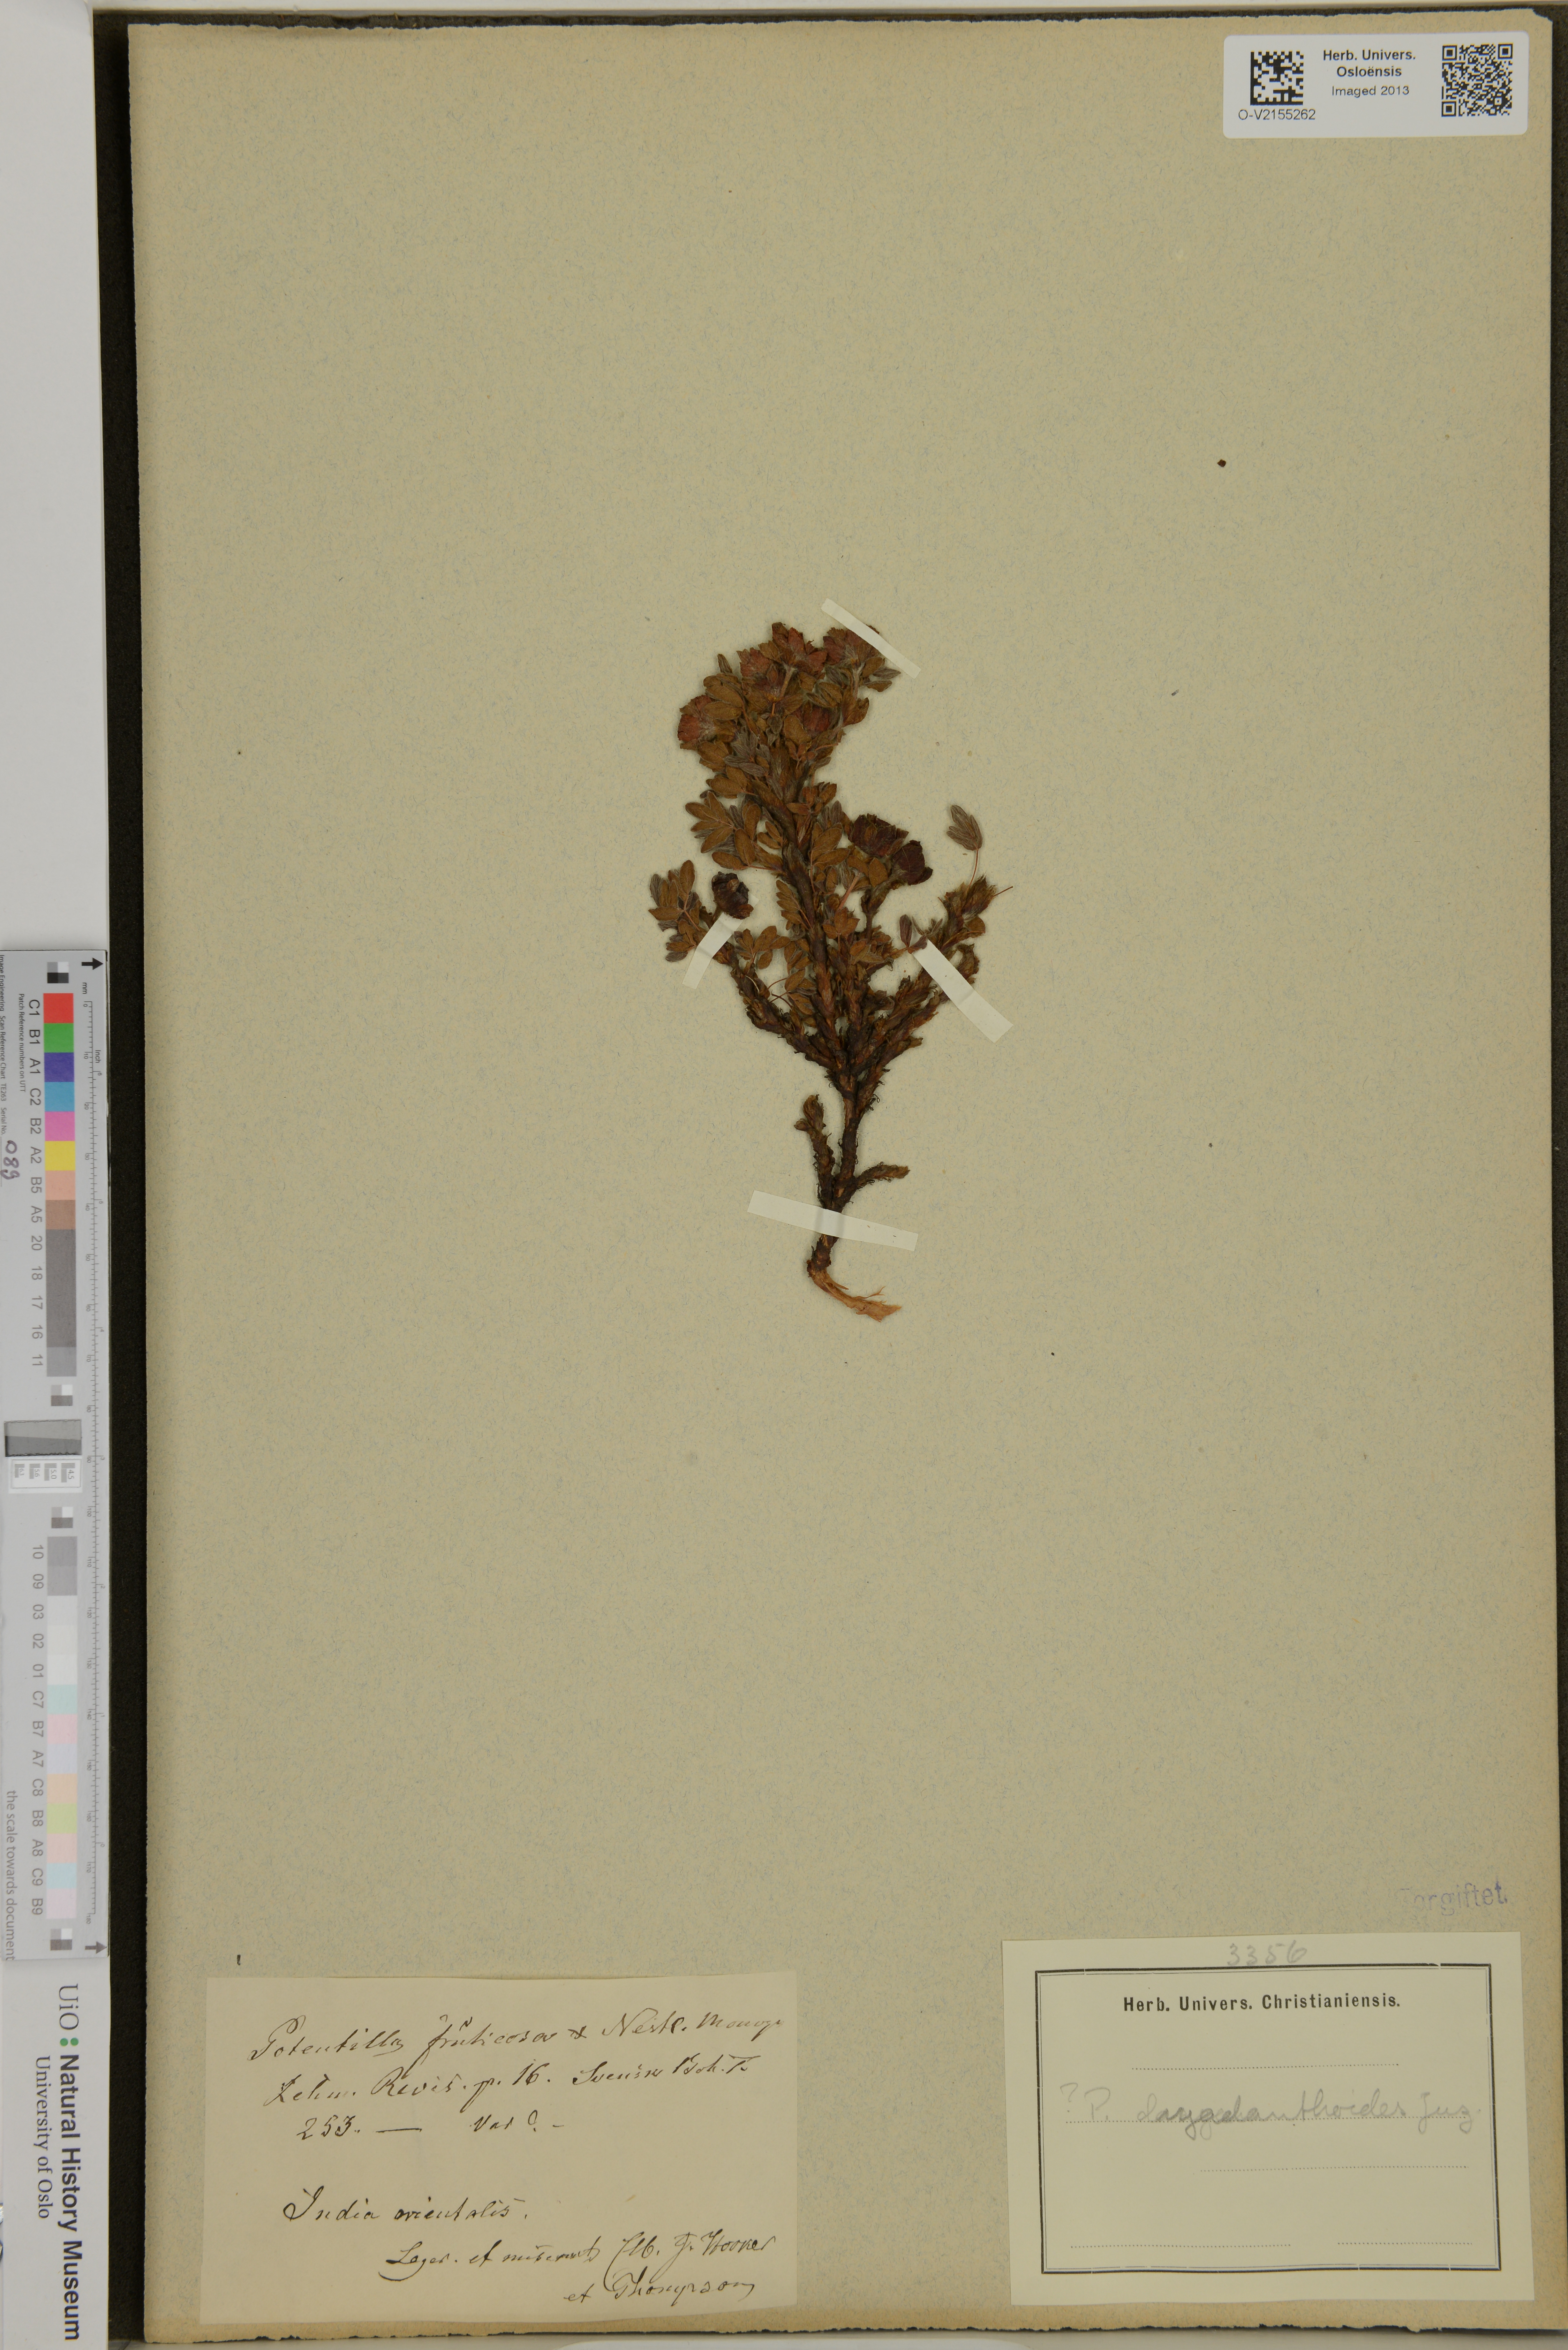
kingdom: Plantae
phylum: Tracheophyta
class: Magnoliopsida
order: Rosales
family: Rosaceae
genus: Dasiphora
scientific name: Dasiphora fruticosa
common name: Shrubby cinquefoil
